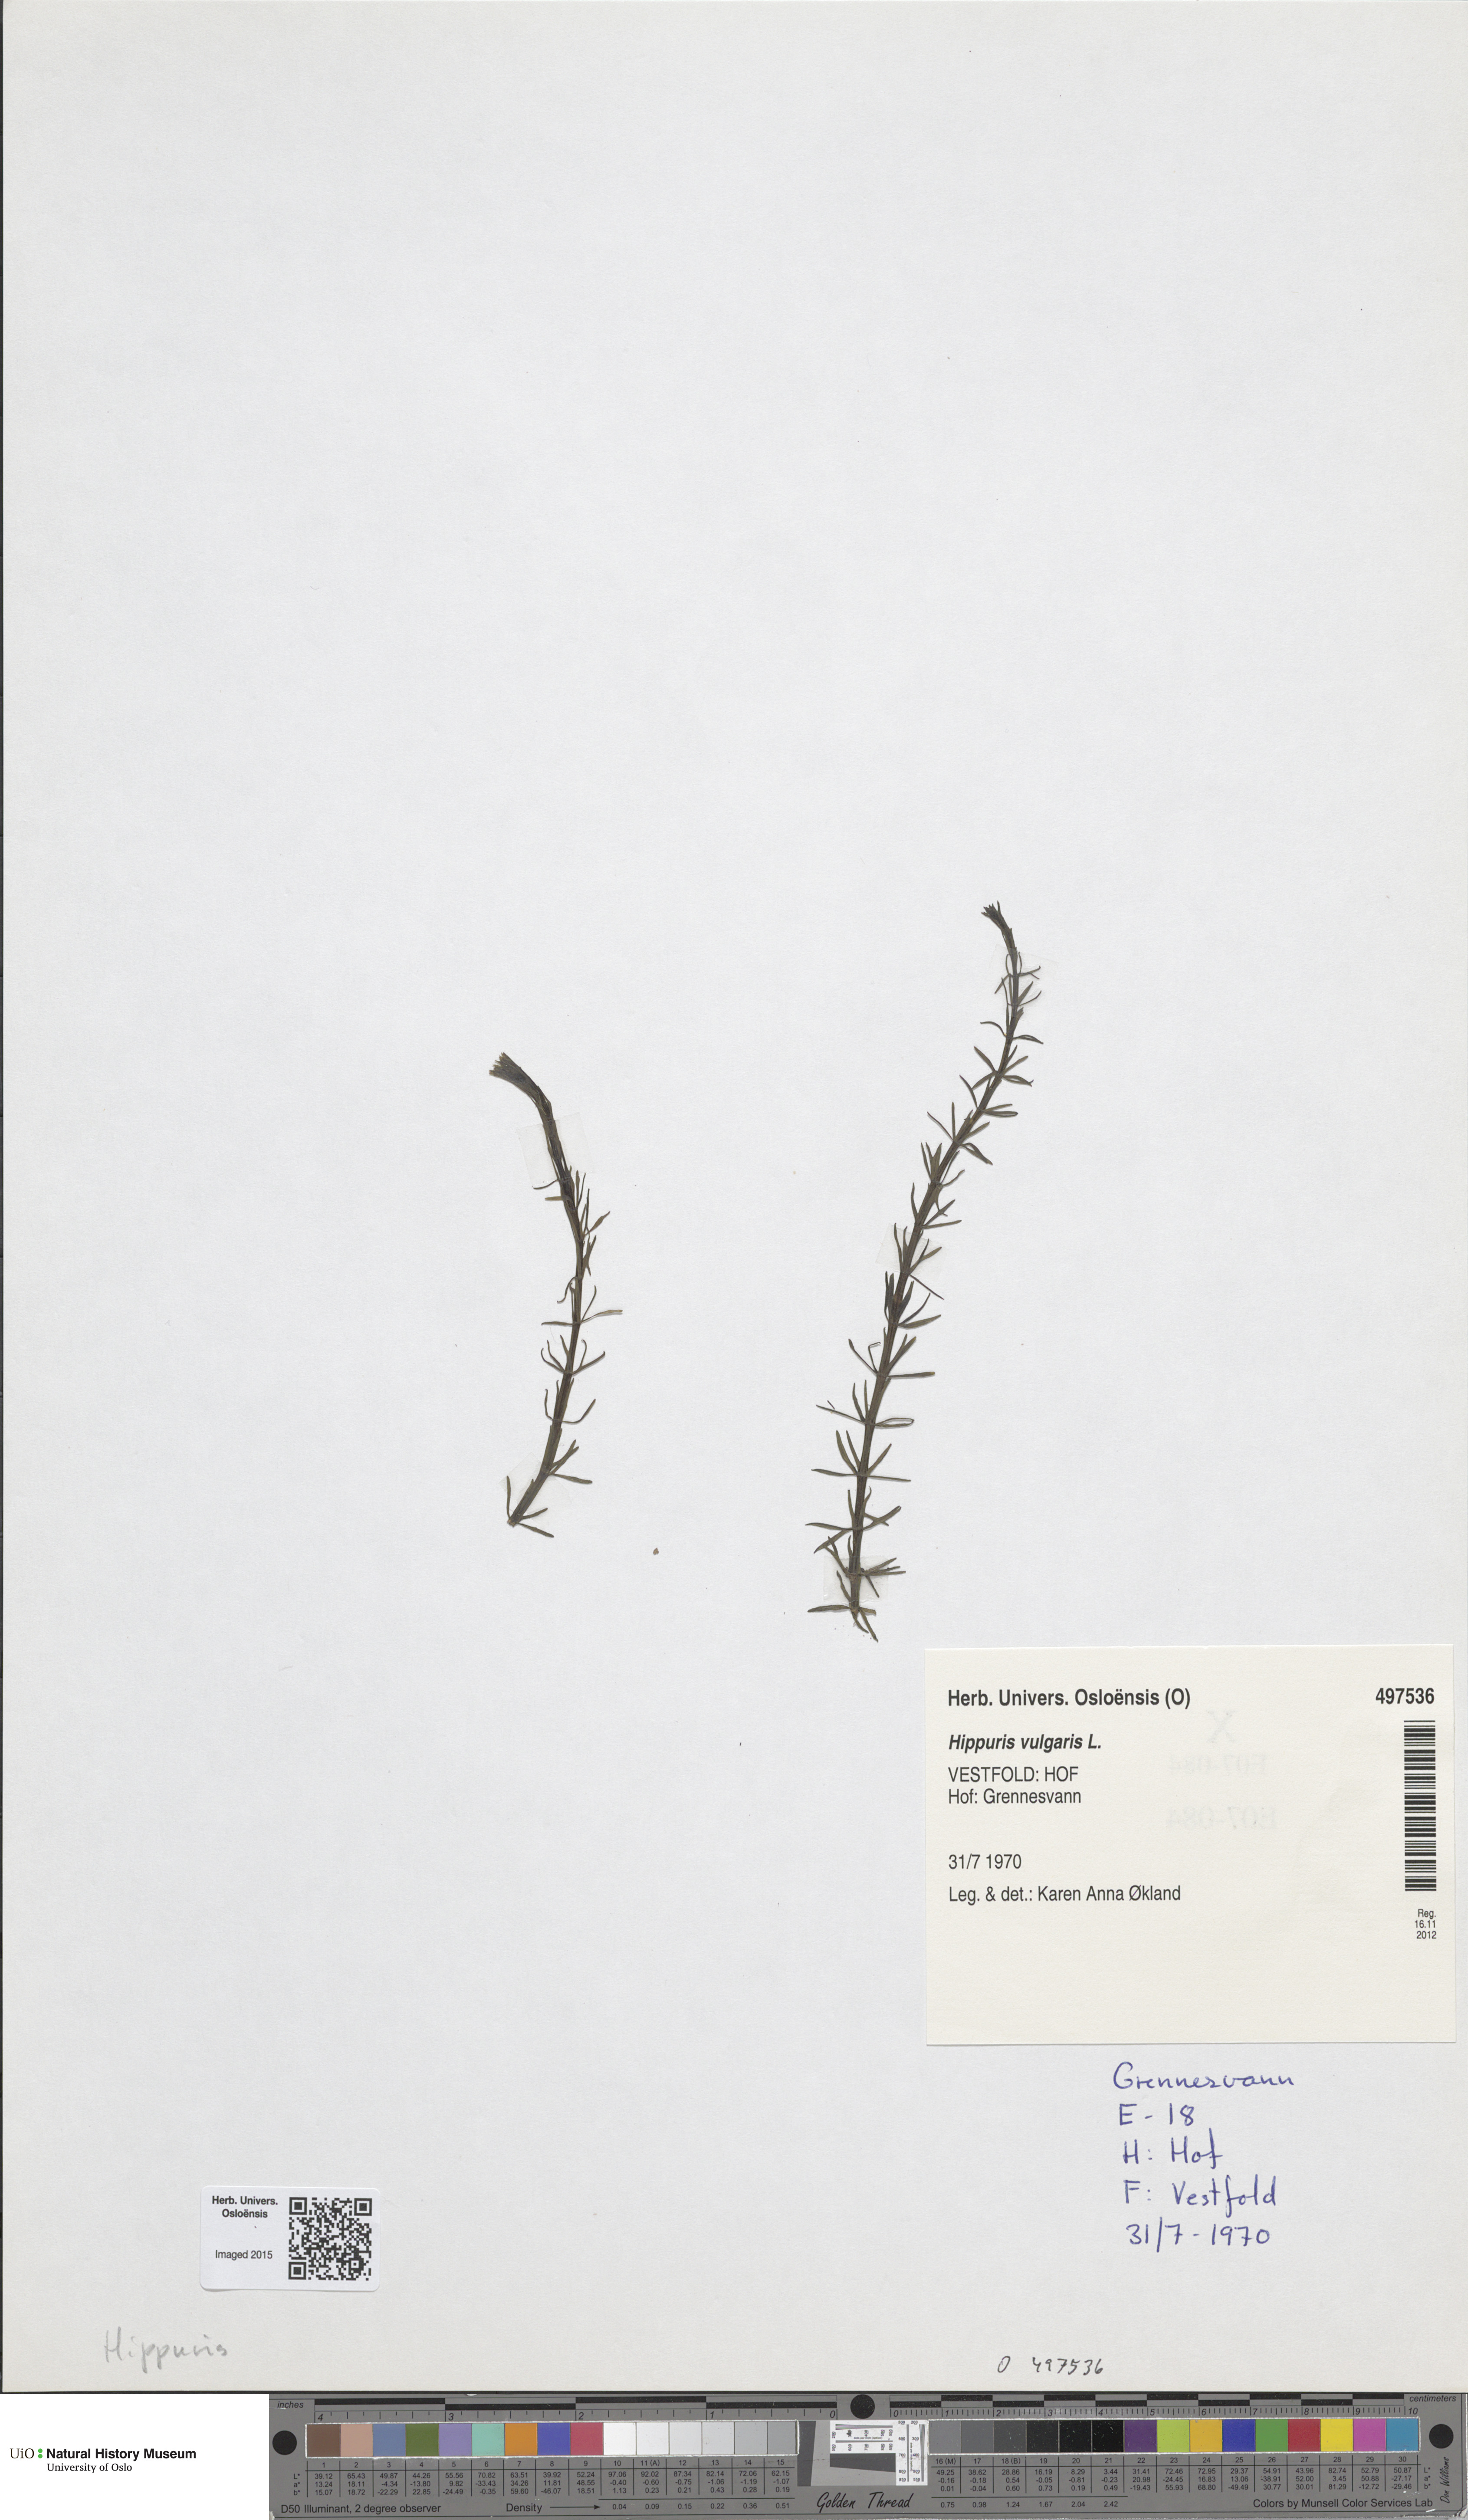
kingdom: Plantae
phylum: Tracheophyta
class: Magnoliopsida
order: Lamiales
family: Plantaginaceae
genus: Hippuris
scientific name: Hippuris vulgaris
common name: Mare's-tail
